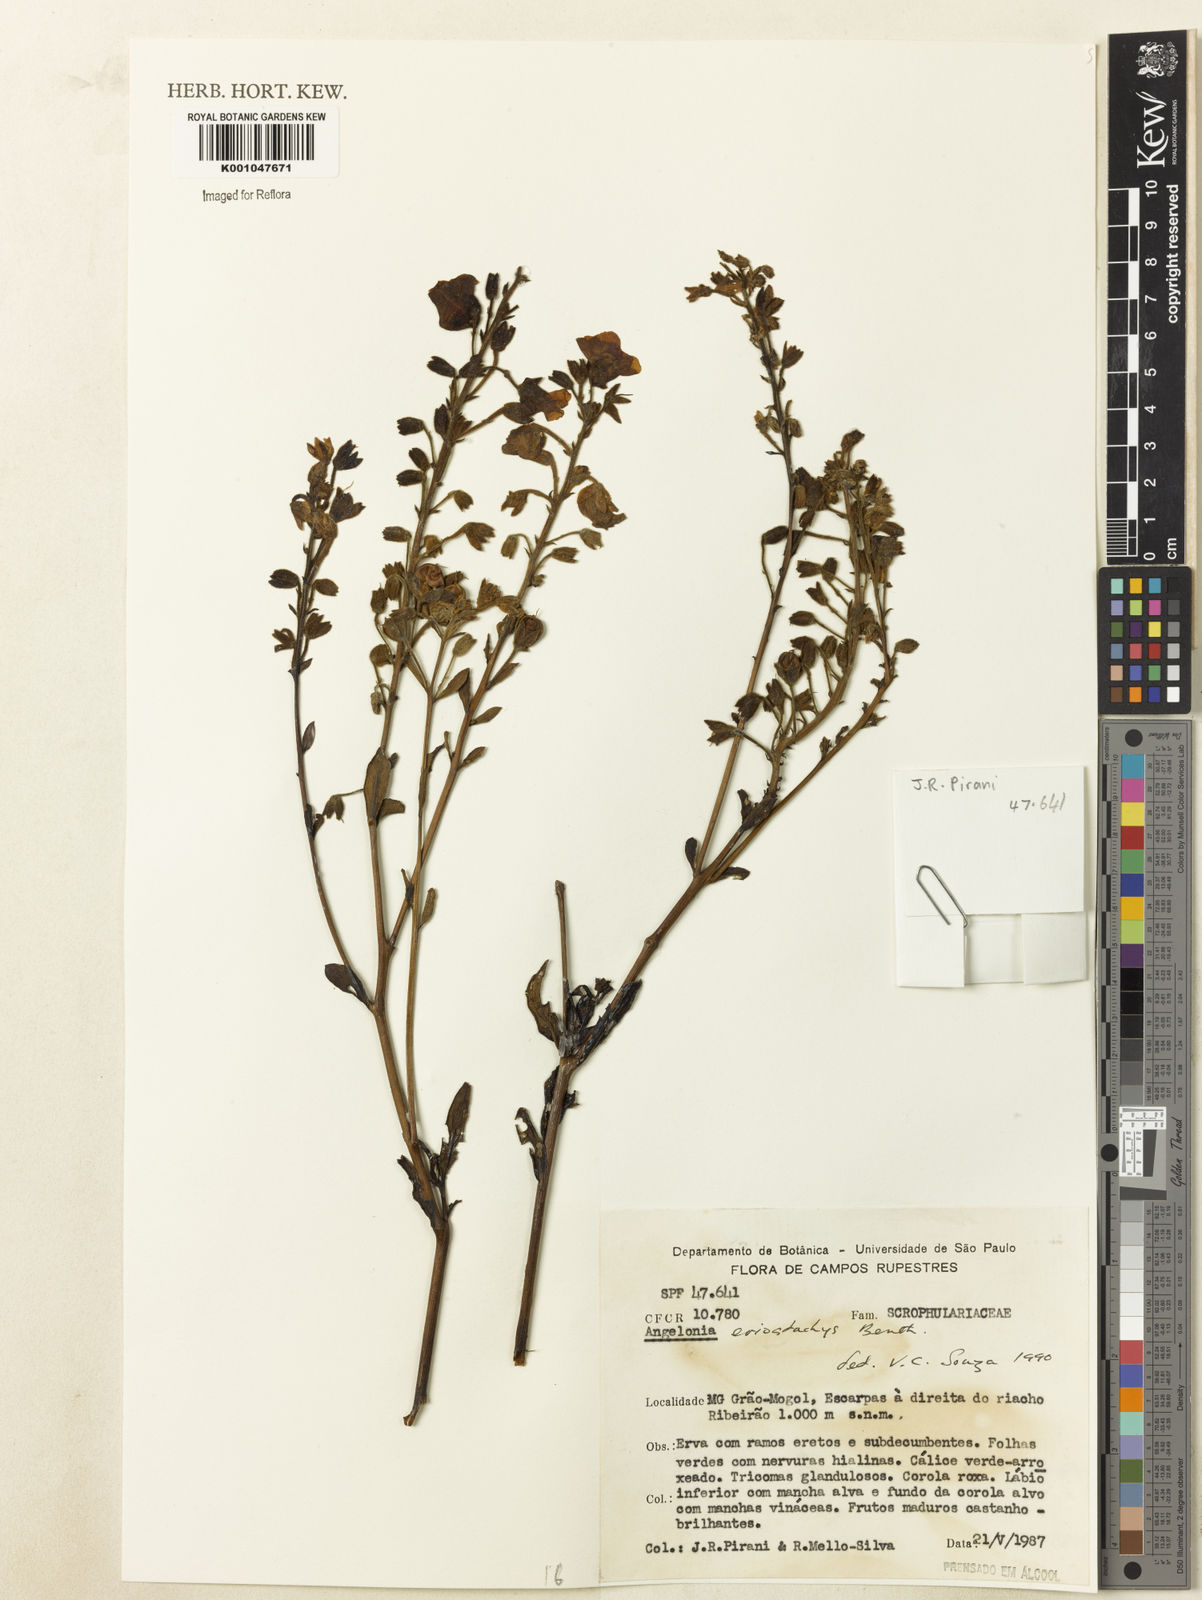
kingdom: Plantae
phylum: Tracheophyta
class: Magnoliopsida
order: Lamiales
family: Plantaginaceae
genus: Angelonia
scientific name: Angelonia eriostachys
